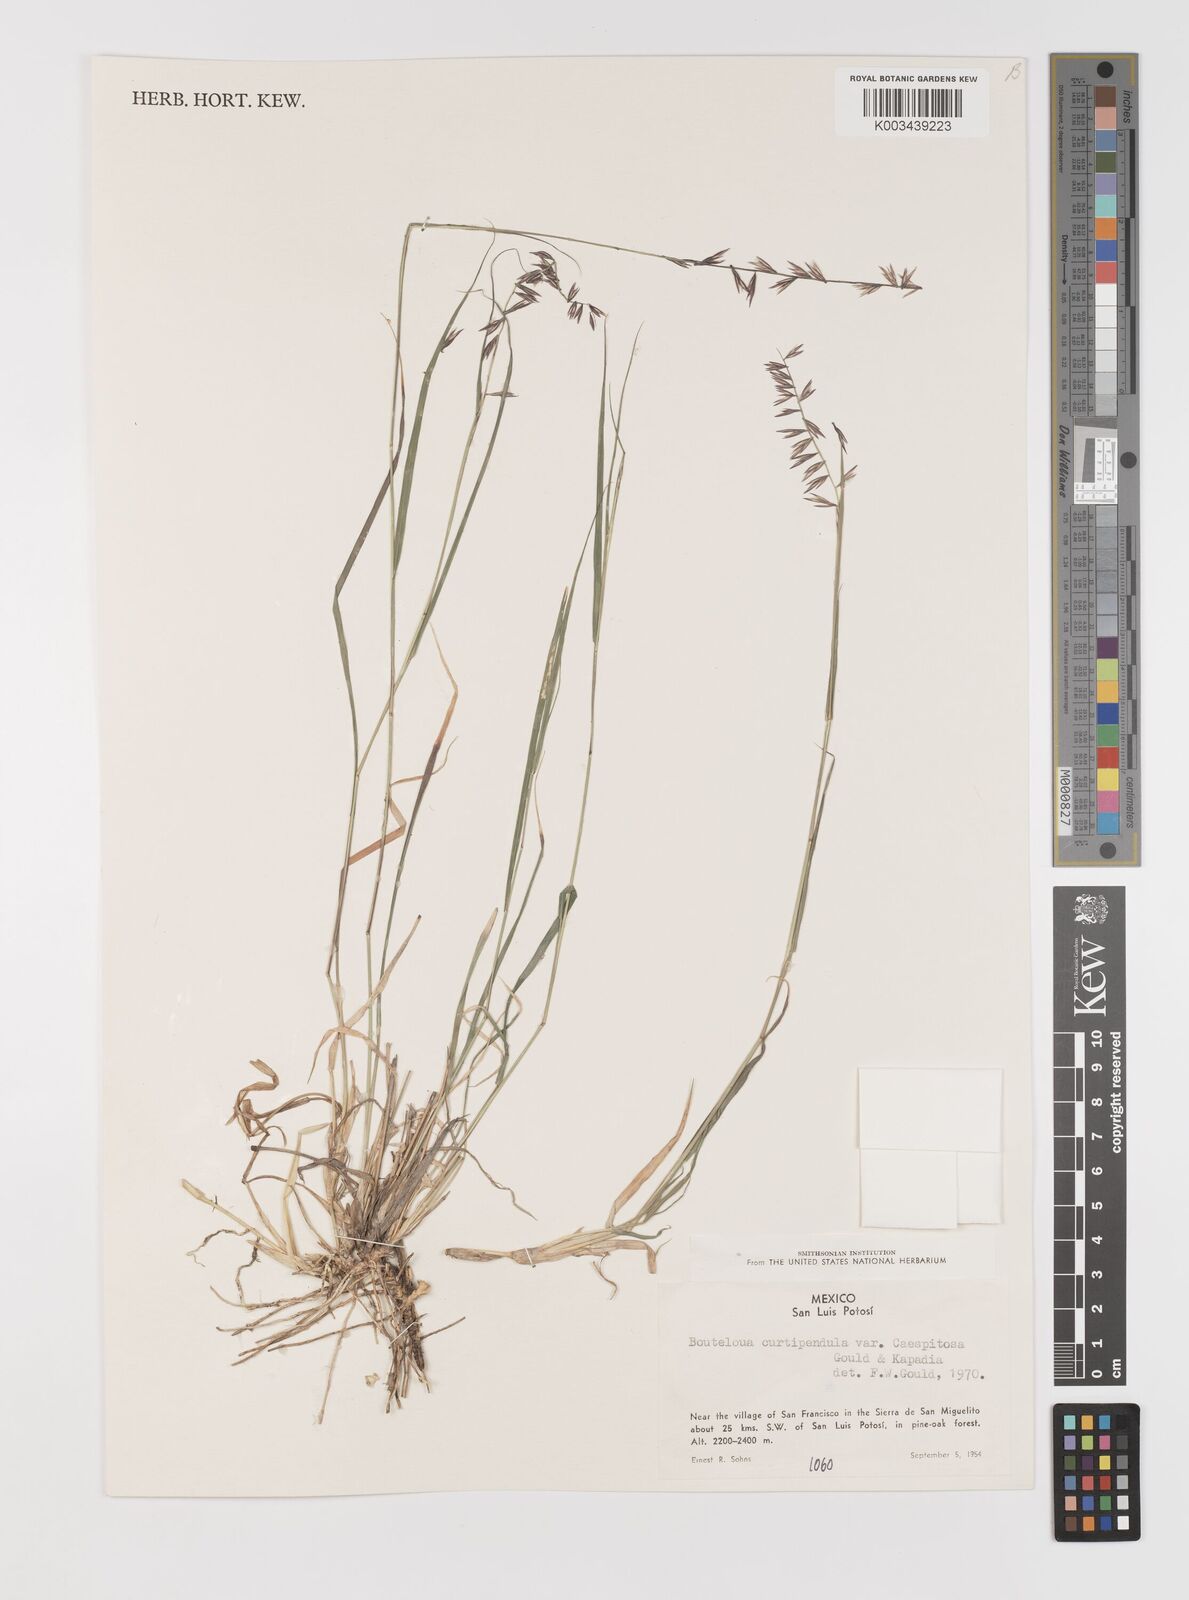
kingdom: Plantae
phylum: Tracheophyta
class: Liliopsida
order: Poales
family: Poaceae
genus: Bouteloua
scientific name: Bouteloua curtipendula
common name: Side-oats grama
